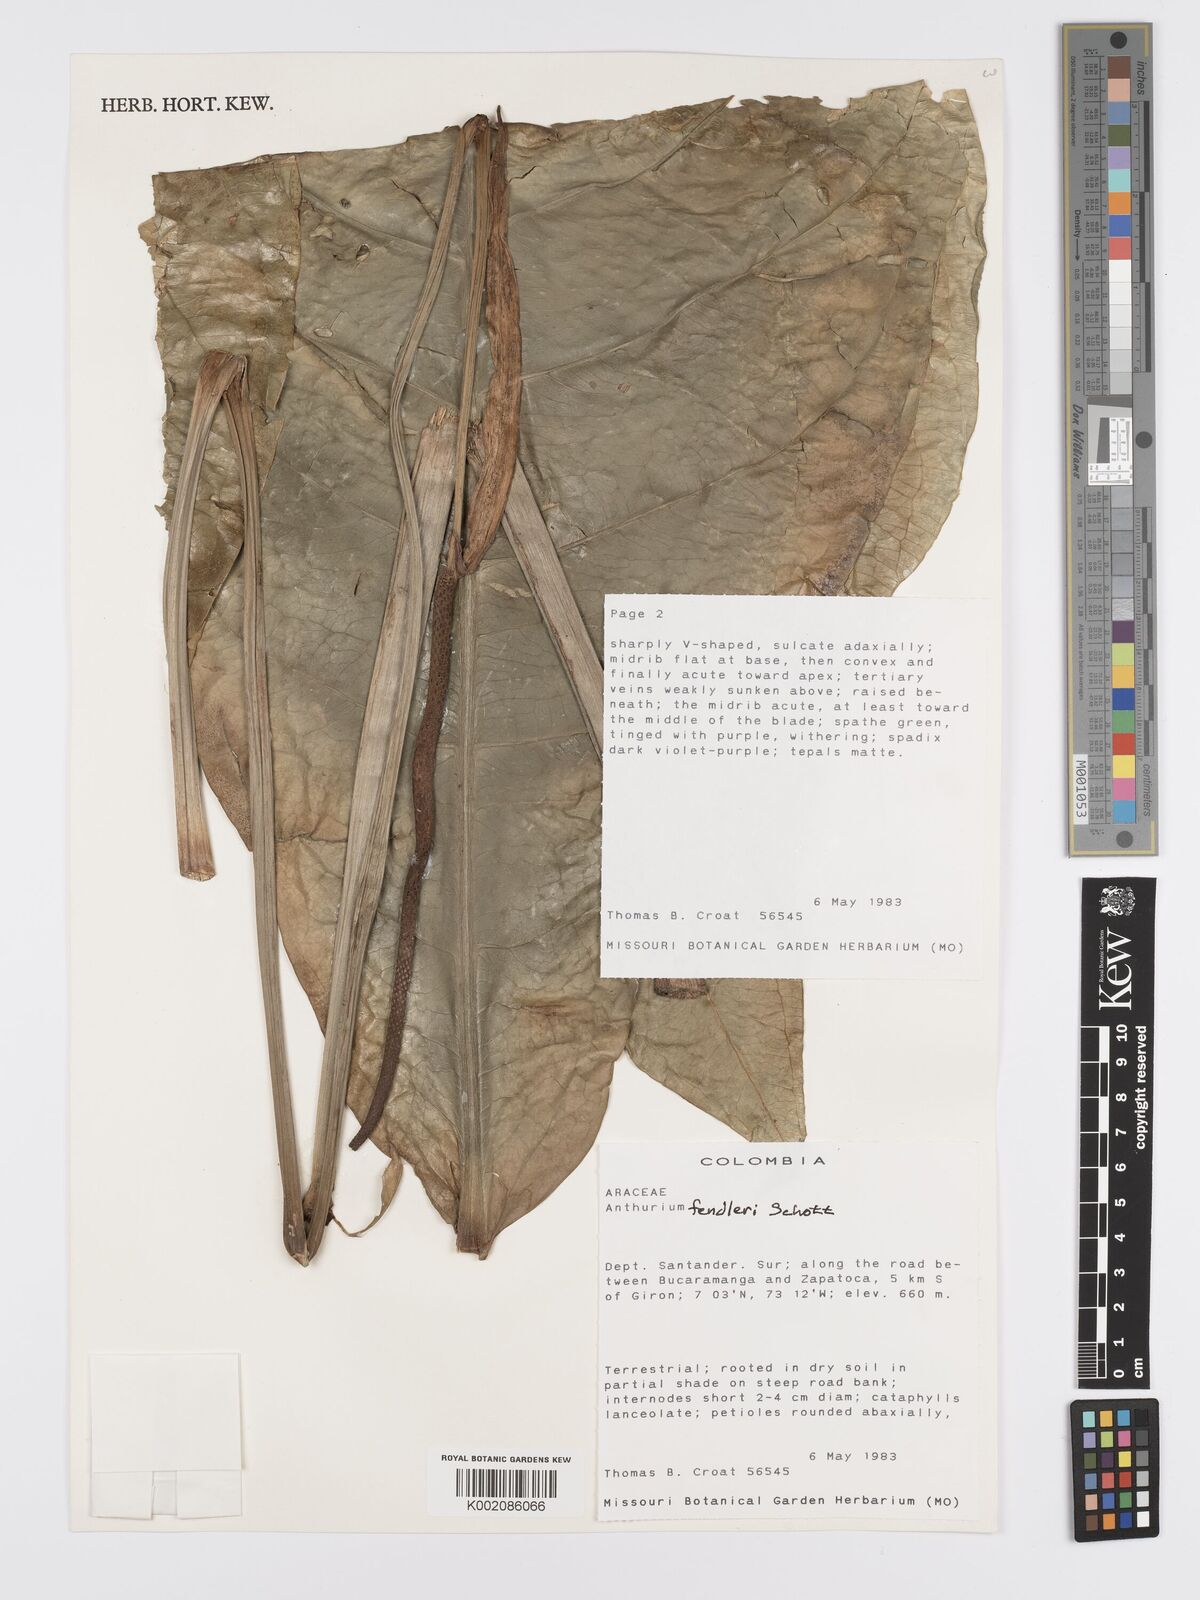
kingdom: Plantae
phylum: Tracheophyta
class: Liliopsida
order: Alismatales
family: Araceae
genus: Anthurium
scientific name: Anthurium fendleri
